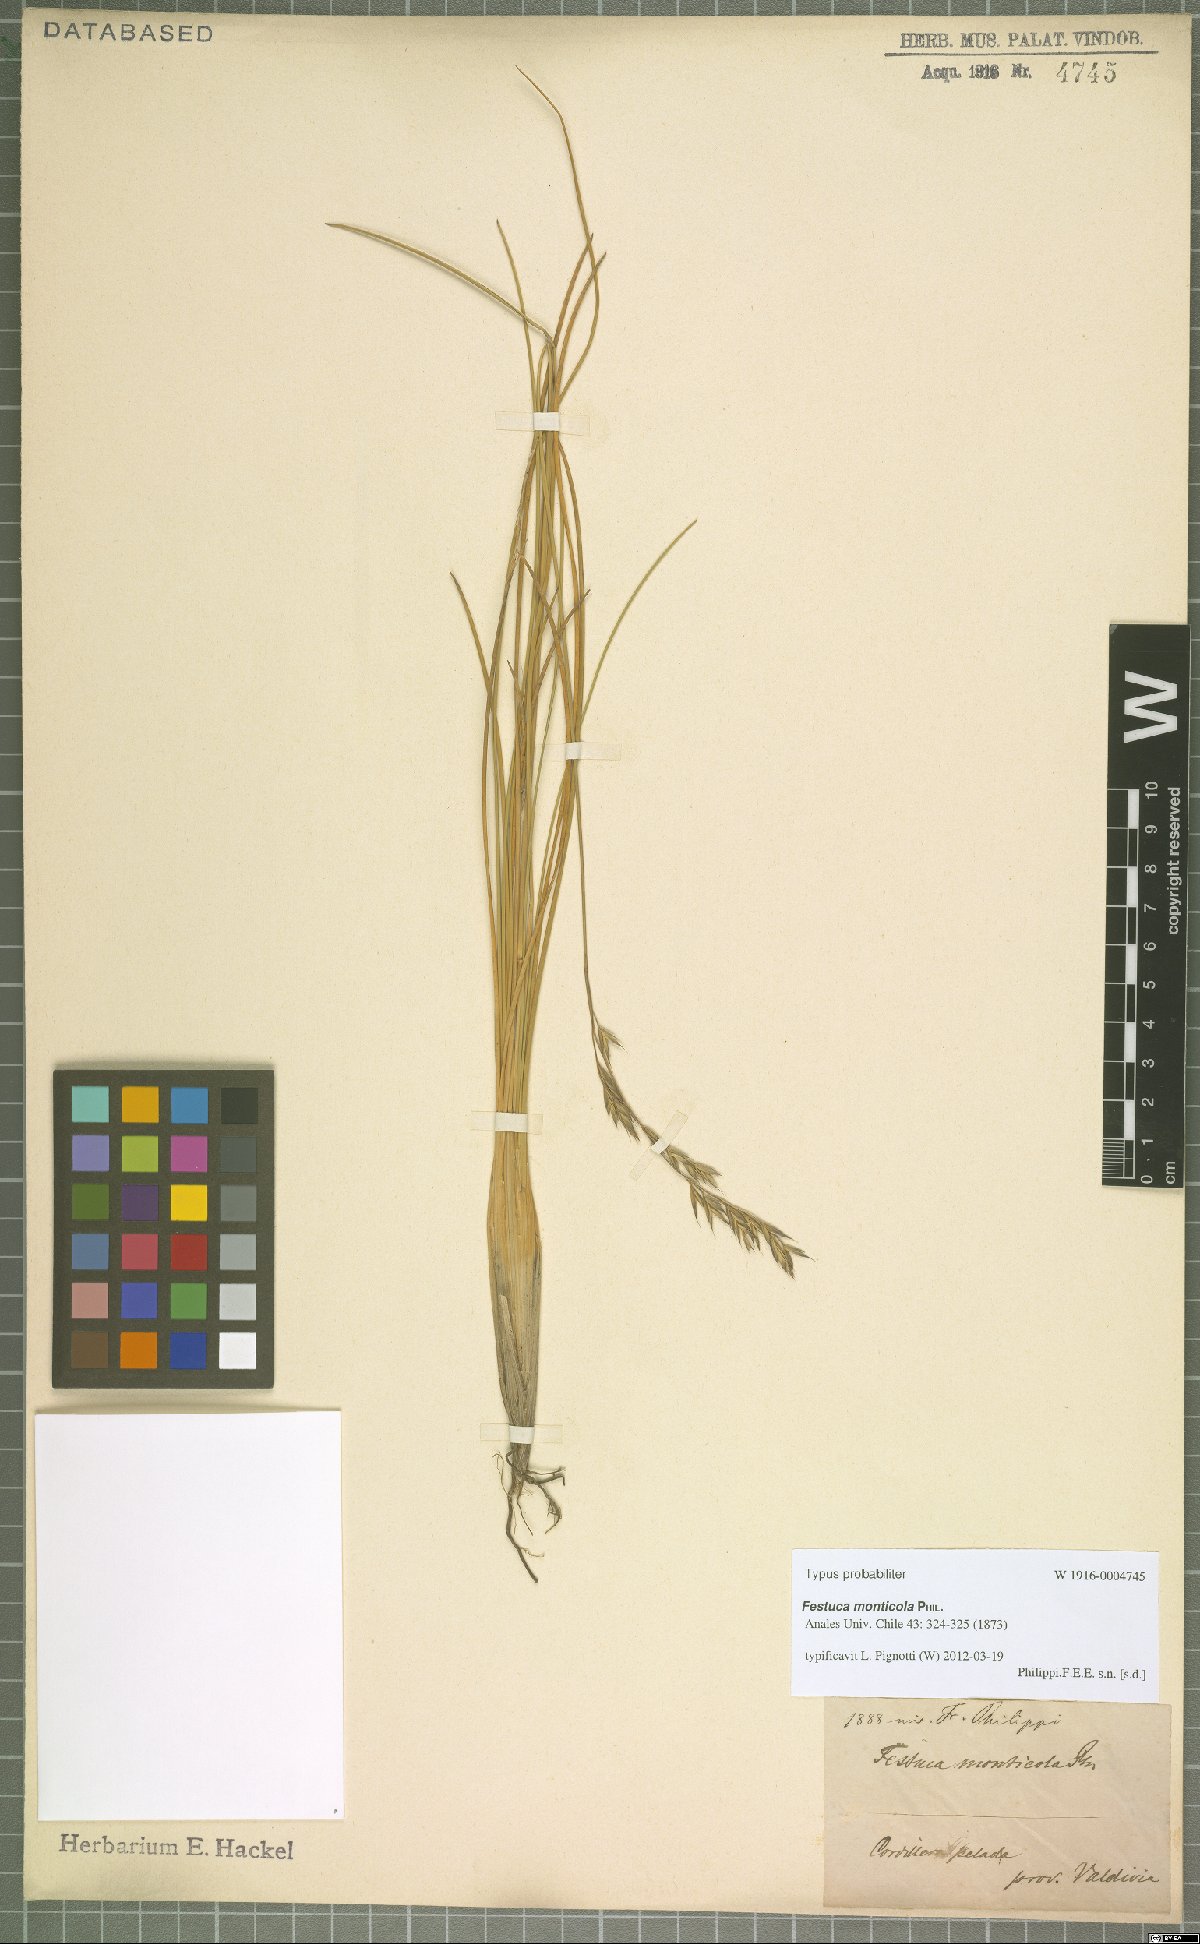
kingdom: Plantae
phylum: Tracheophyta
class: Liliopsida
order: Poales
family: Poaceae
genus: Festuca
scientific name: Festuca monticola
